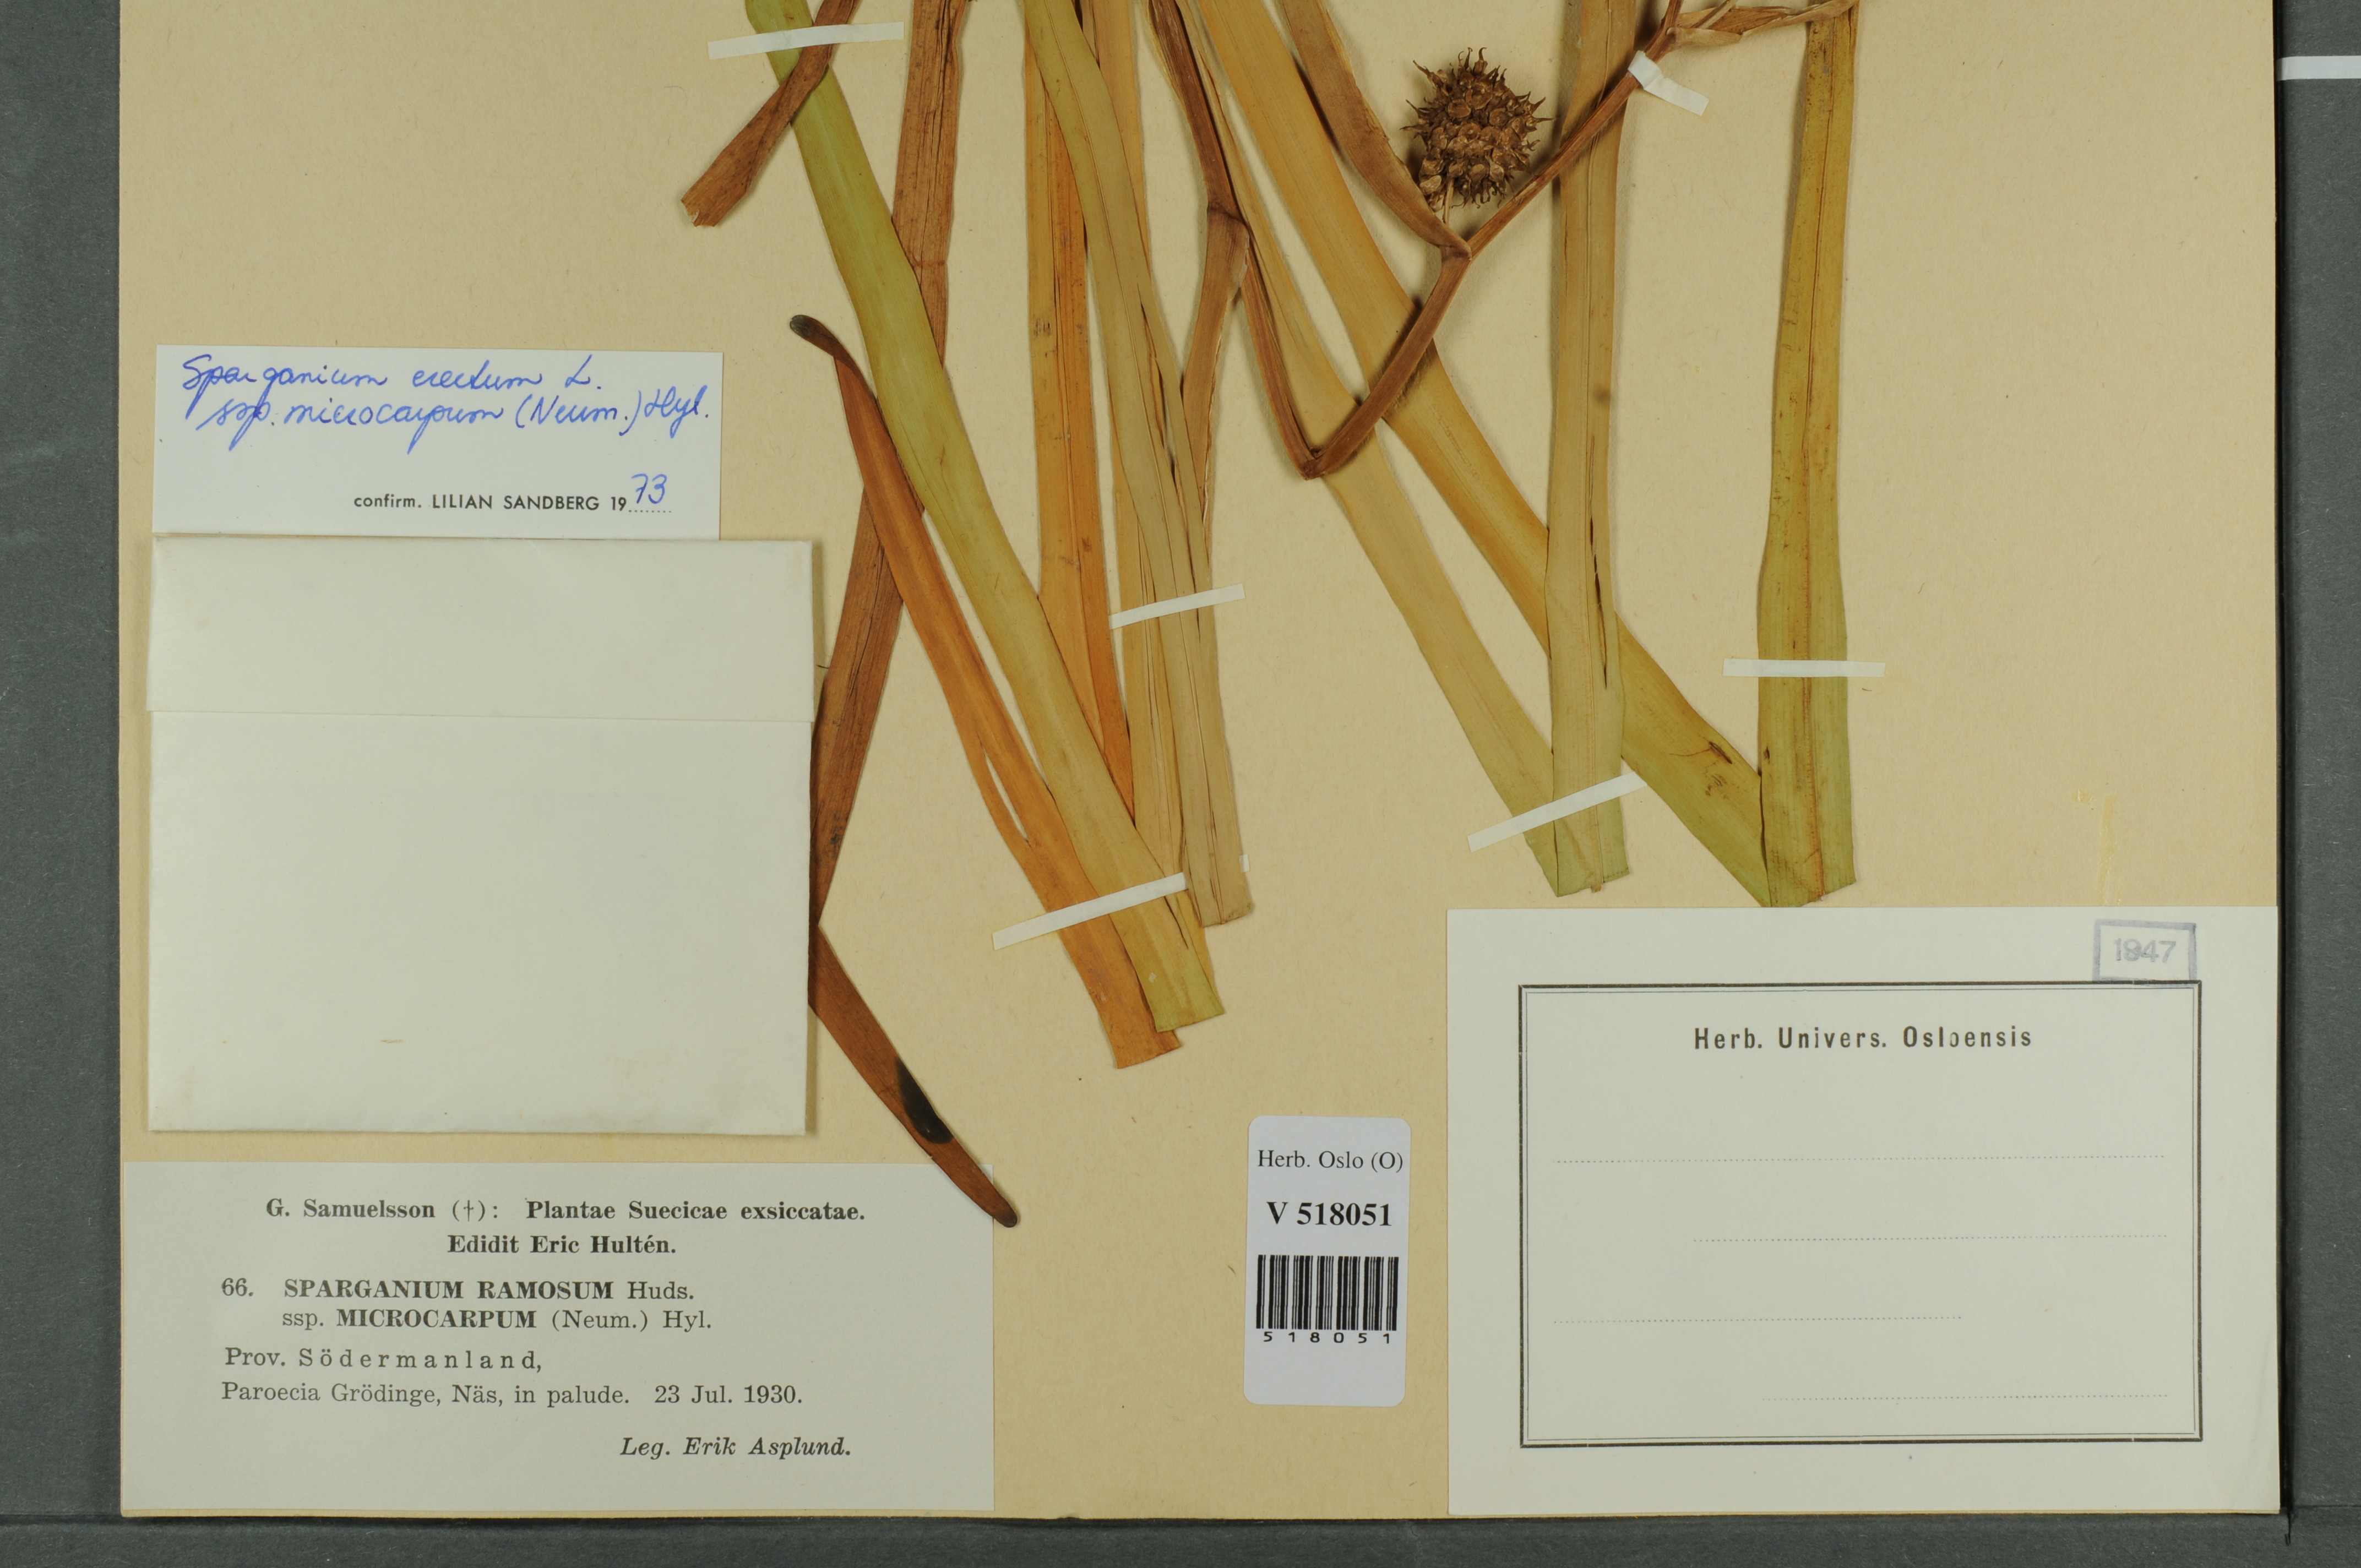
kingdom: Plantae
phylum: Tracheophyta
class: Liliopsida
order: Poales
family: Typhaceae
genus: Sparganium
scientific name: Sparganium erectum
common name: Branched bur-reed
